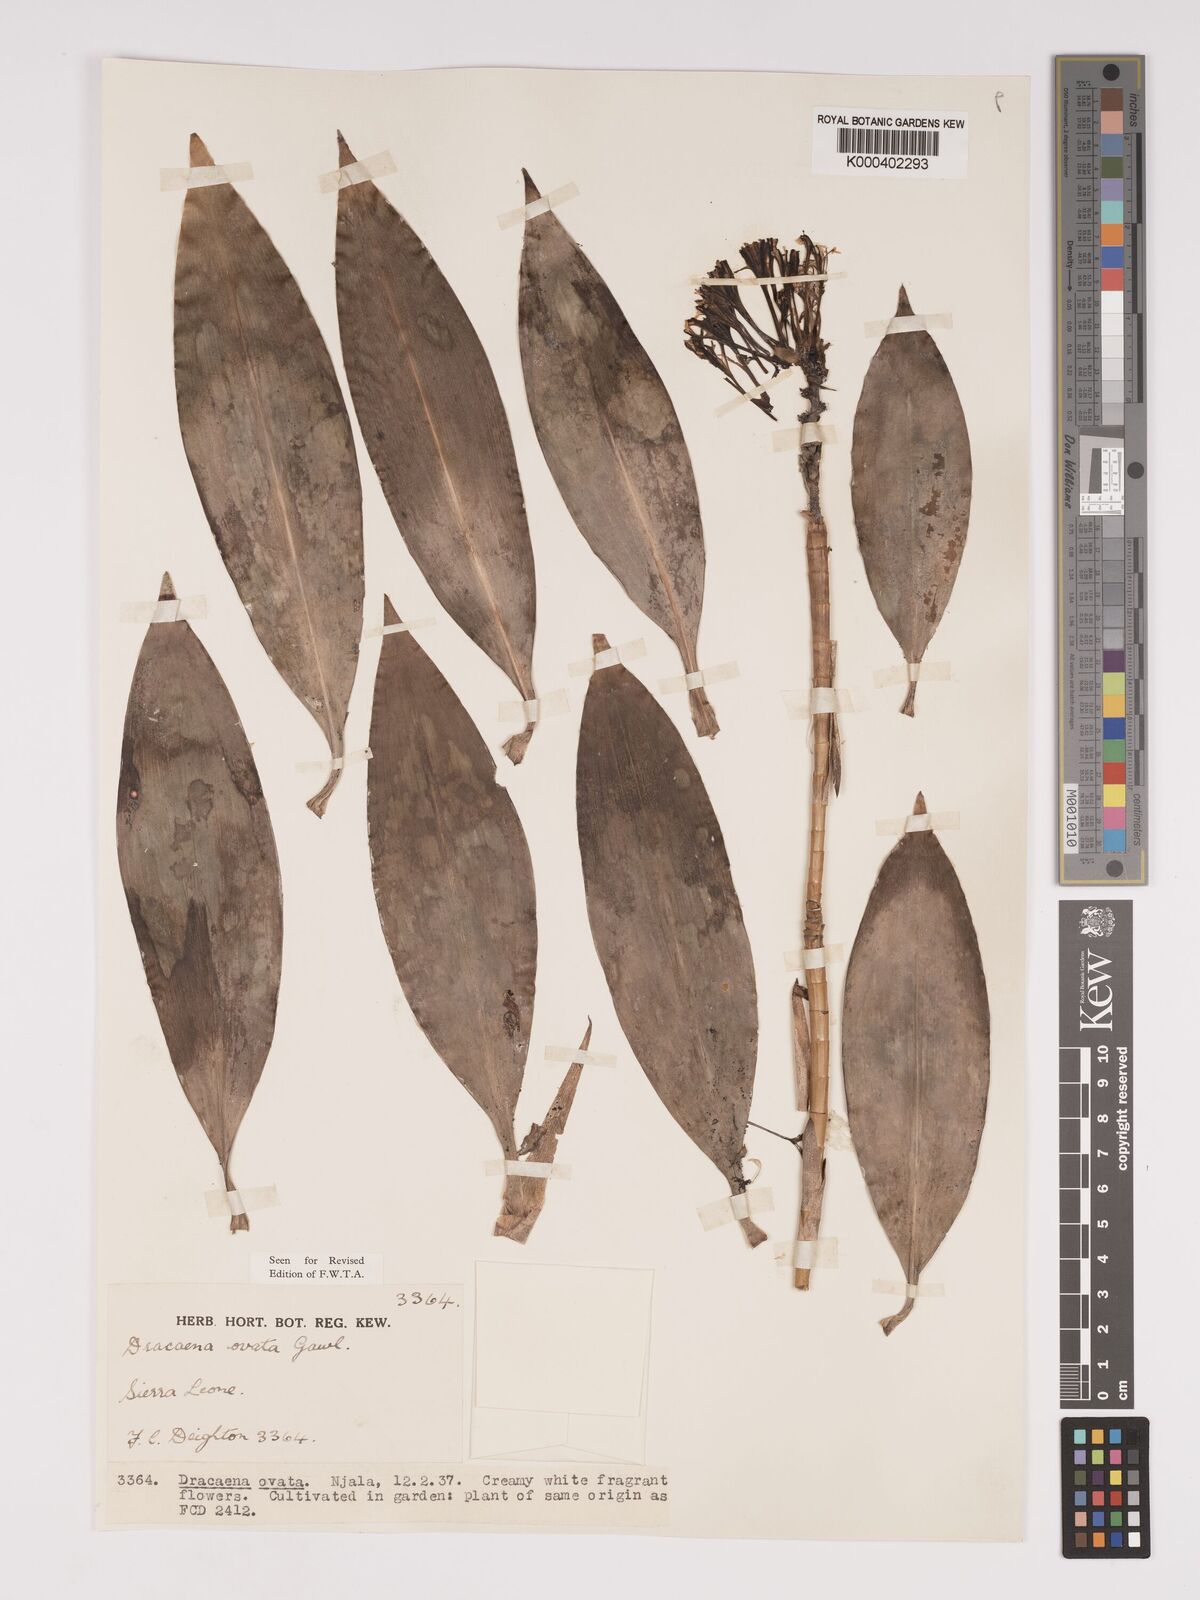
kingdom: Plantae
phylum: Tracheophyta
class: Liliopsida
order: Asparagales
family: Asparagaceae
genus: Dracaena
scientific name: Dracaena ovata
